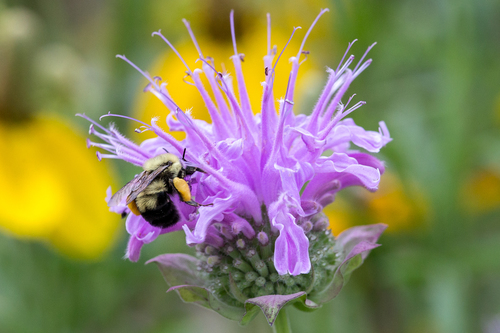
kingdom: Animalia
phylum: Arthropoda
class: Insecta
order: Hymenoptera
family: Apidae
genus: Bombus
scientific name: Bombus bimaculatus
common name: Two-spotted bumble bee
